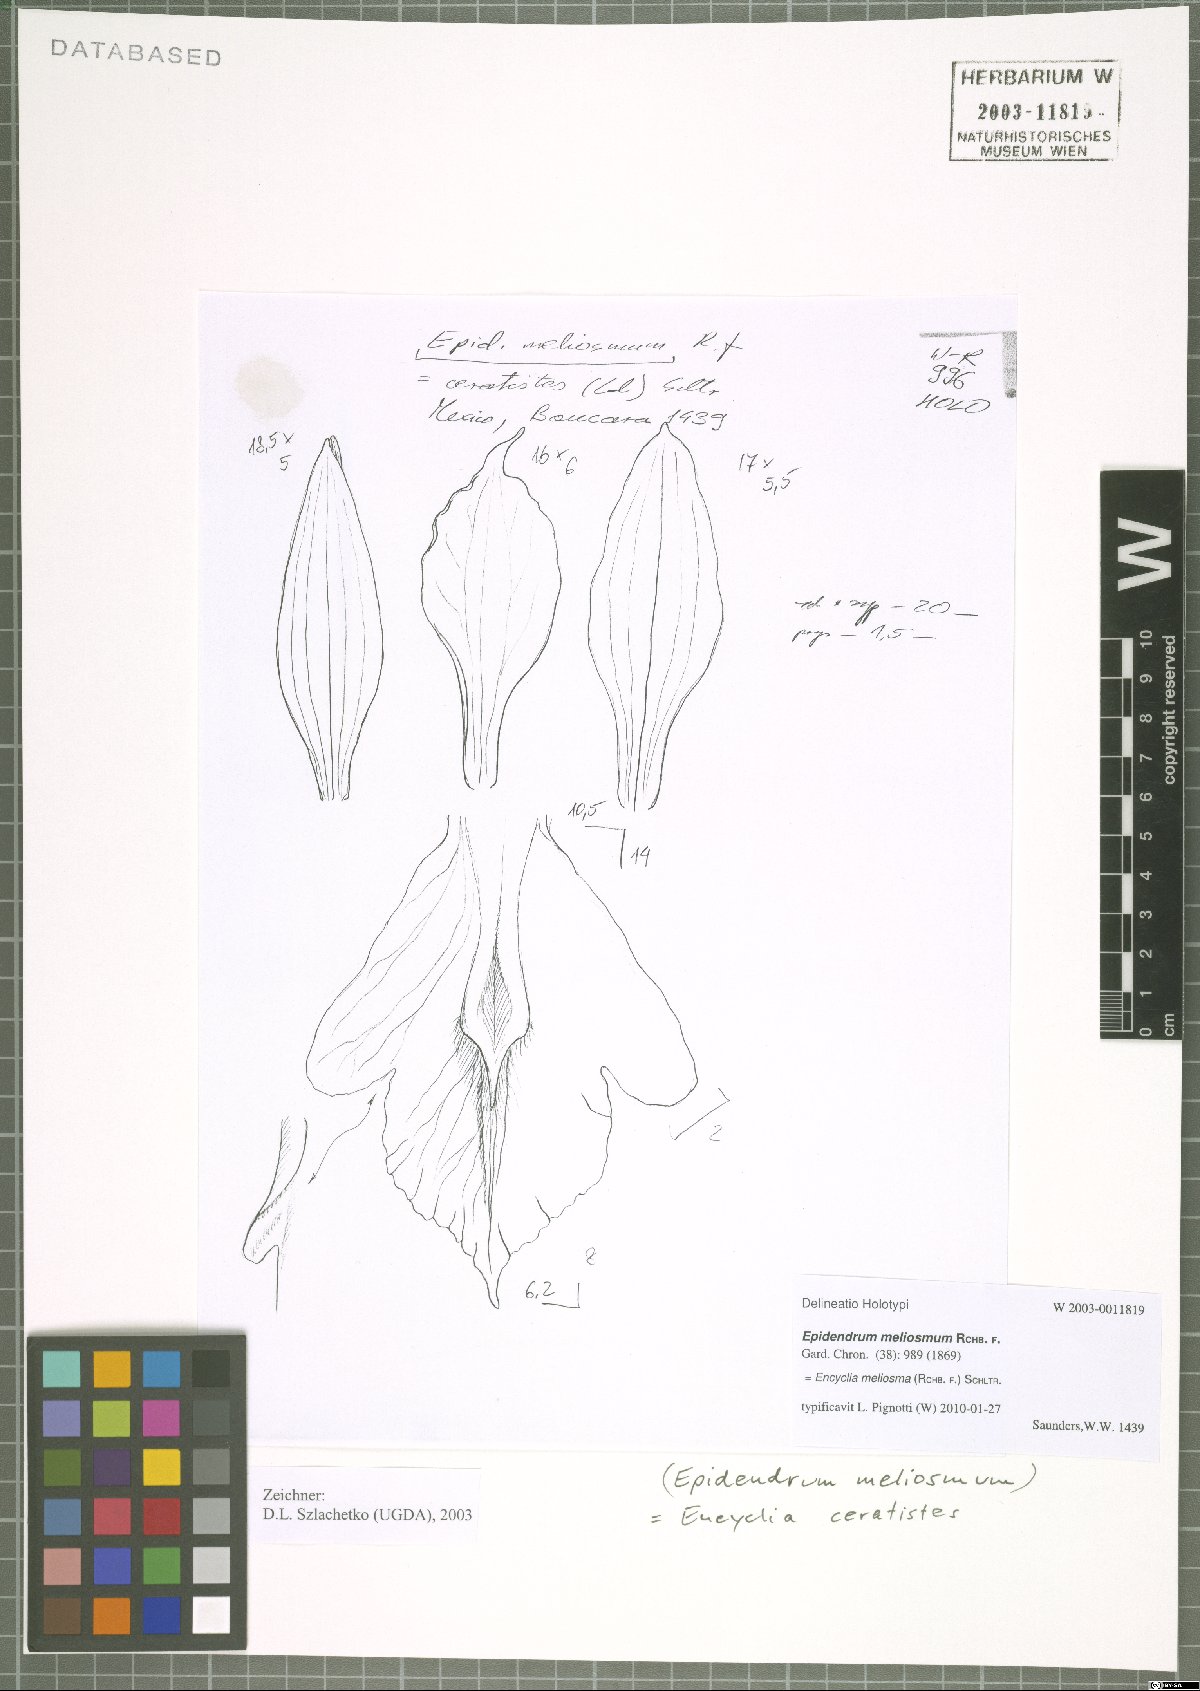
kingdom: Plantae
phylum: Tracheophyta
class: Liliopsida
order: Asparagales
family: Orchidaceae
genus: Encyclia
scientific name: Encyclia meliosma
